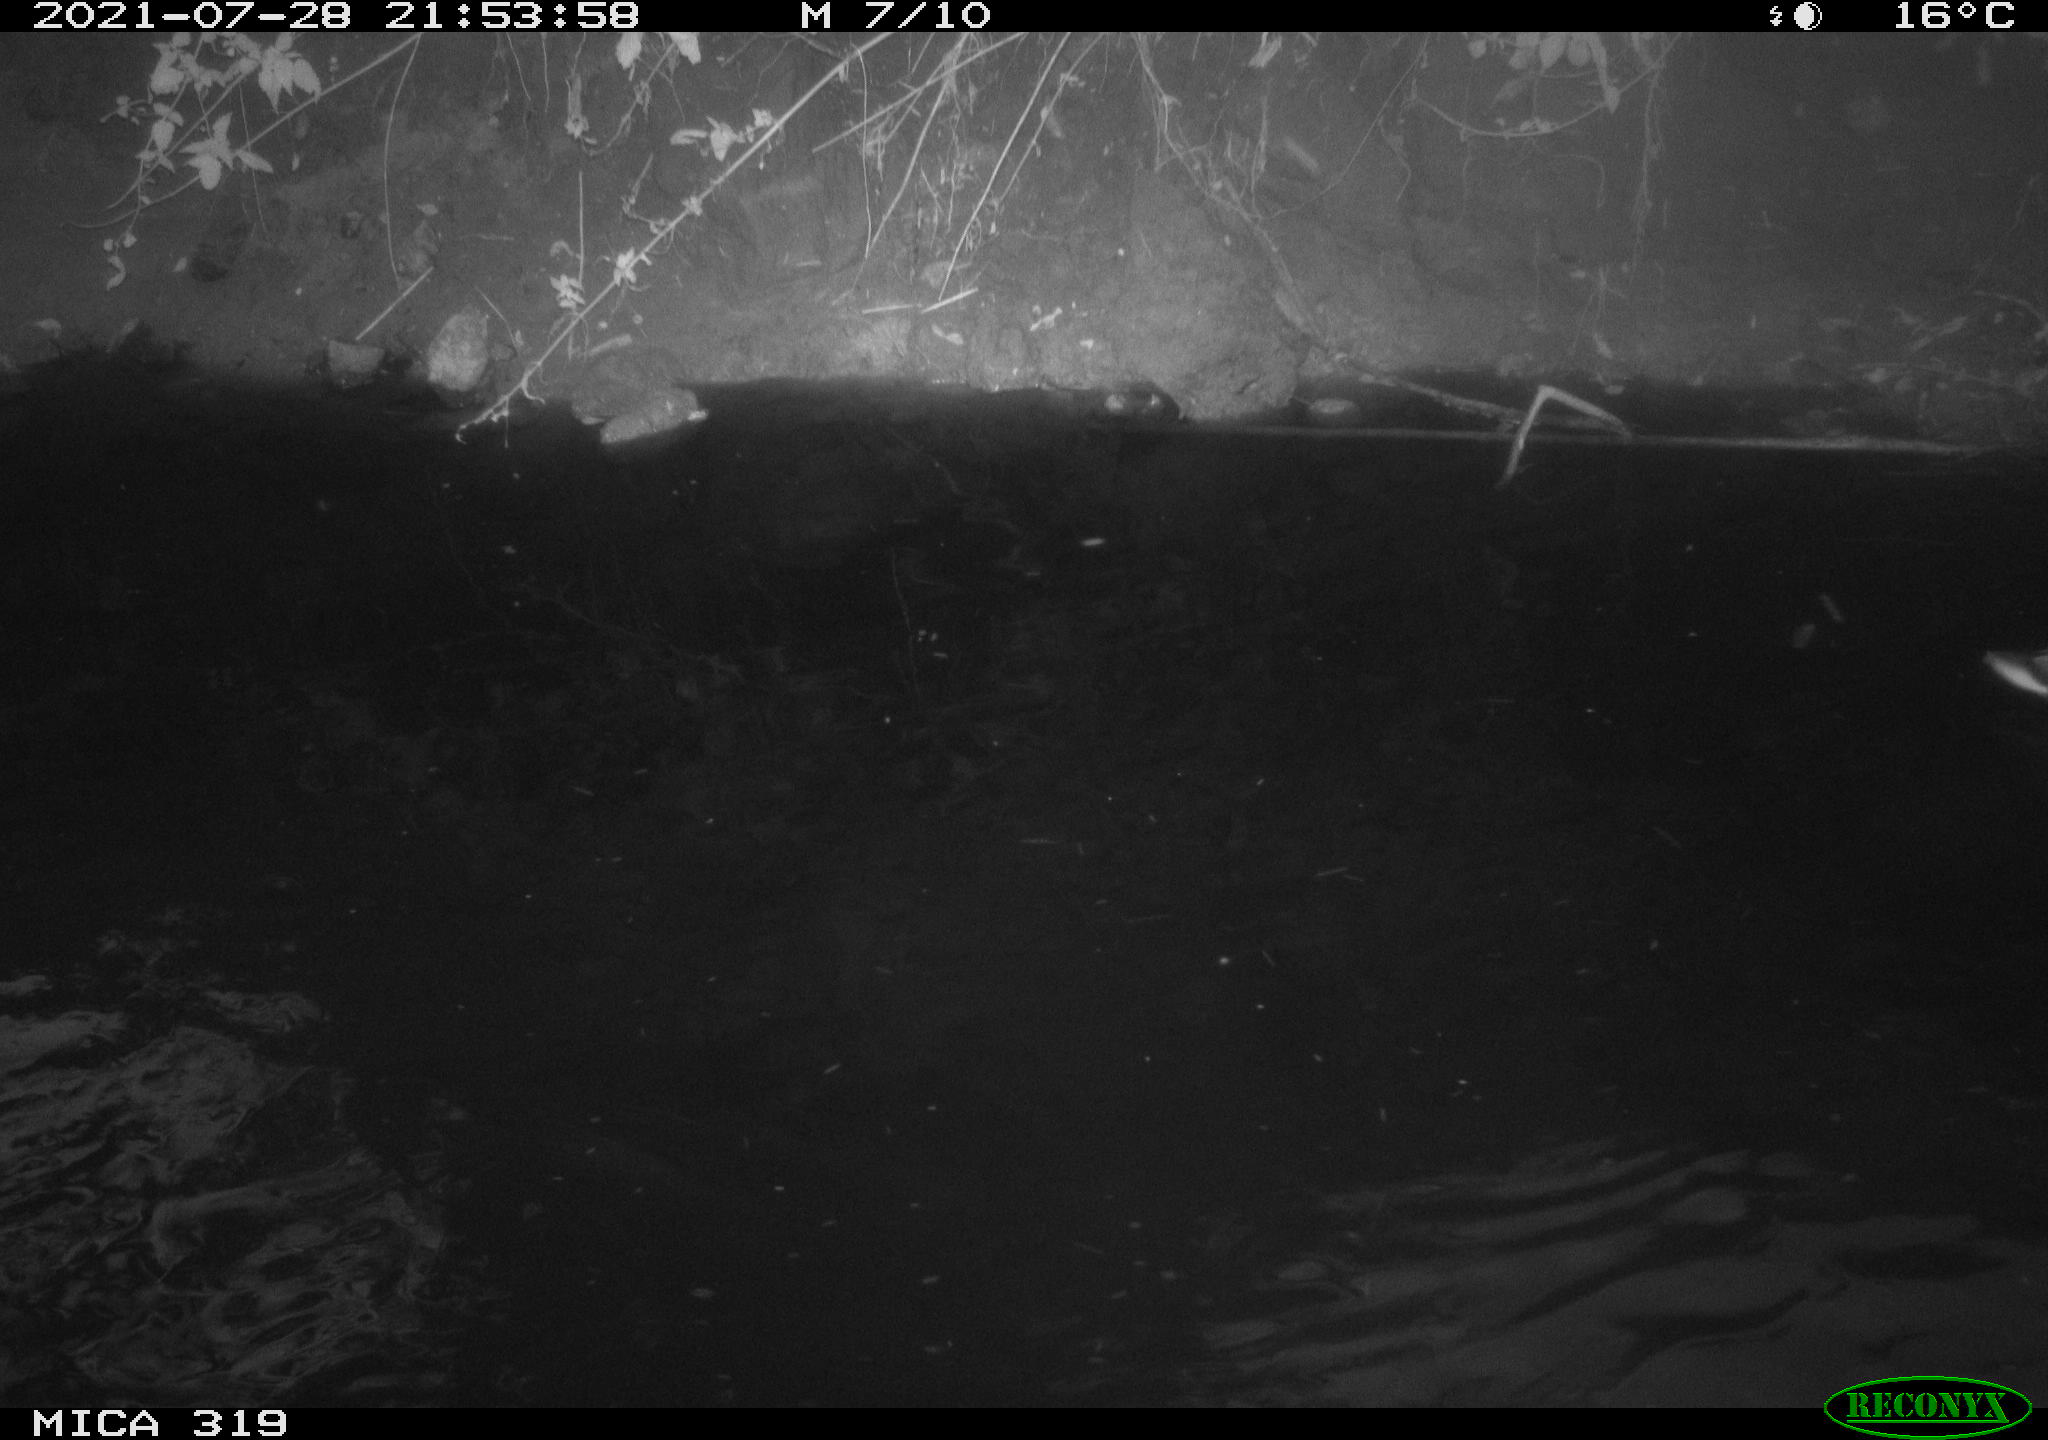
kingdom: Animalia
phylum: Chordata
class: Aves
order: Anseriformes
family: Anatidae
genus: Anas
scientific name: Anas platyrhynchos
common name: Mallard
